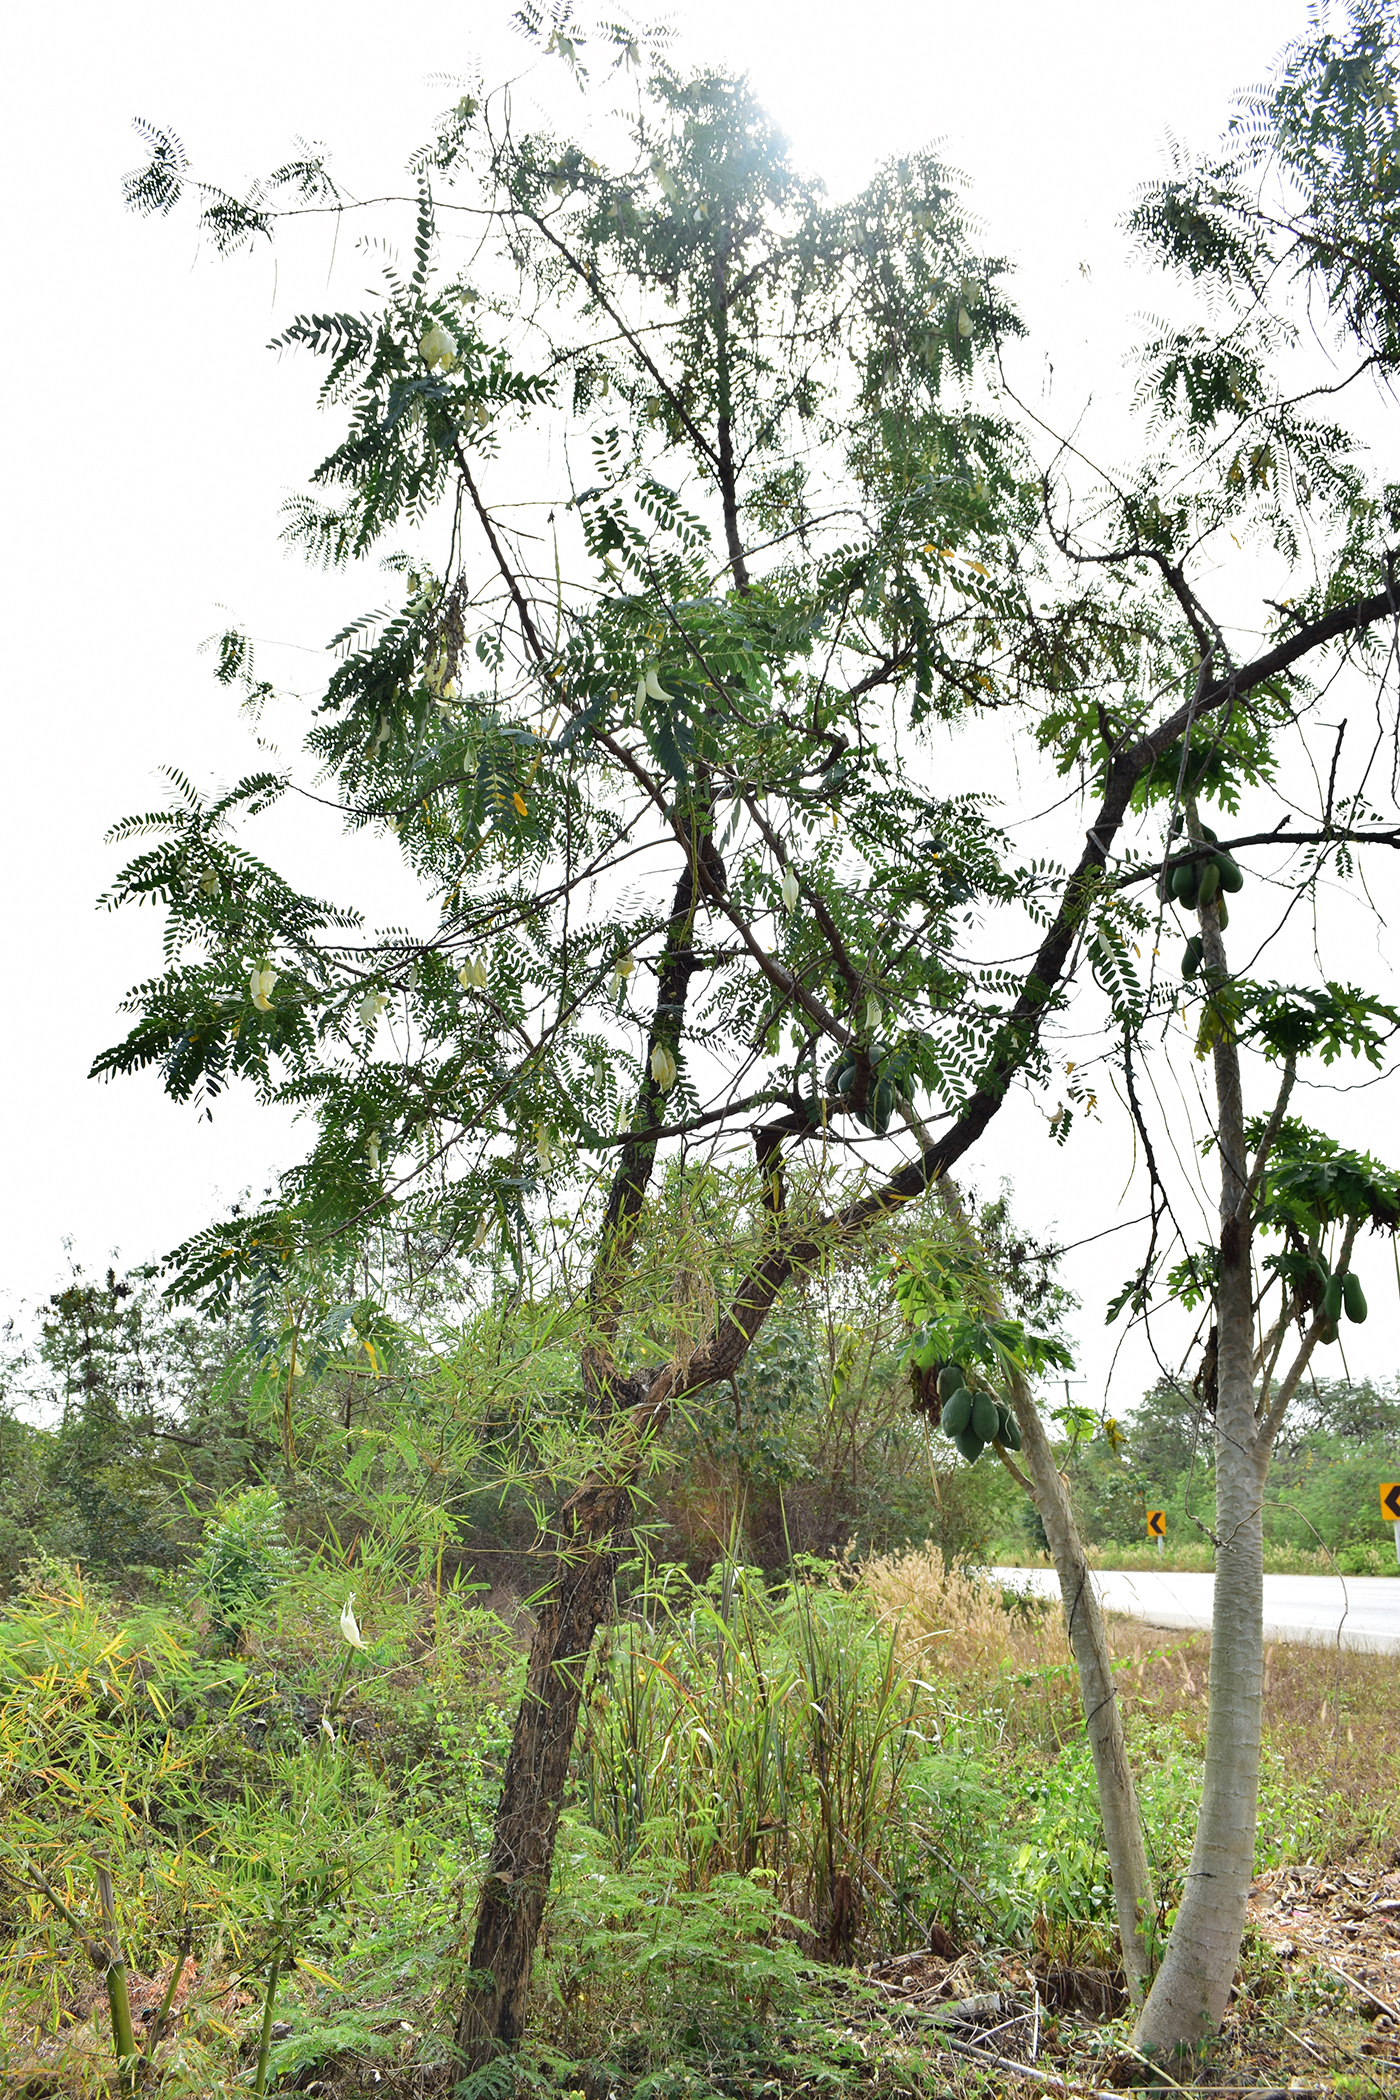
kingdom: Plantae
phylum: Tracheophyta
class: Magnoliopsida
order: Fabales
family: Fabaceae
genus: Sesbania
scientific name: Sesbania grandiflora
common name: Vegetable-hummingbird
